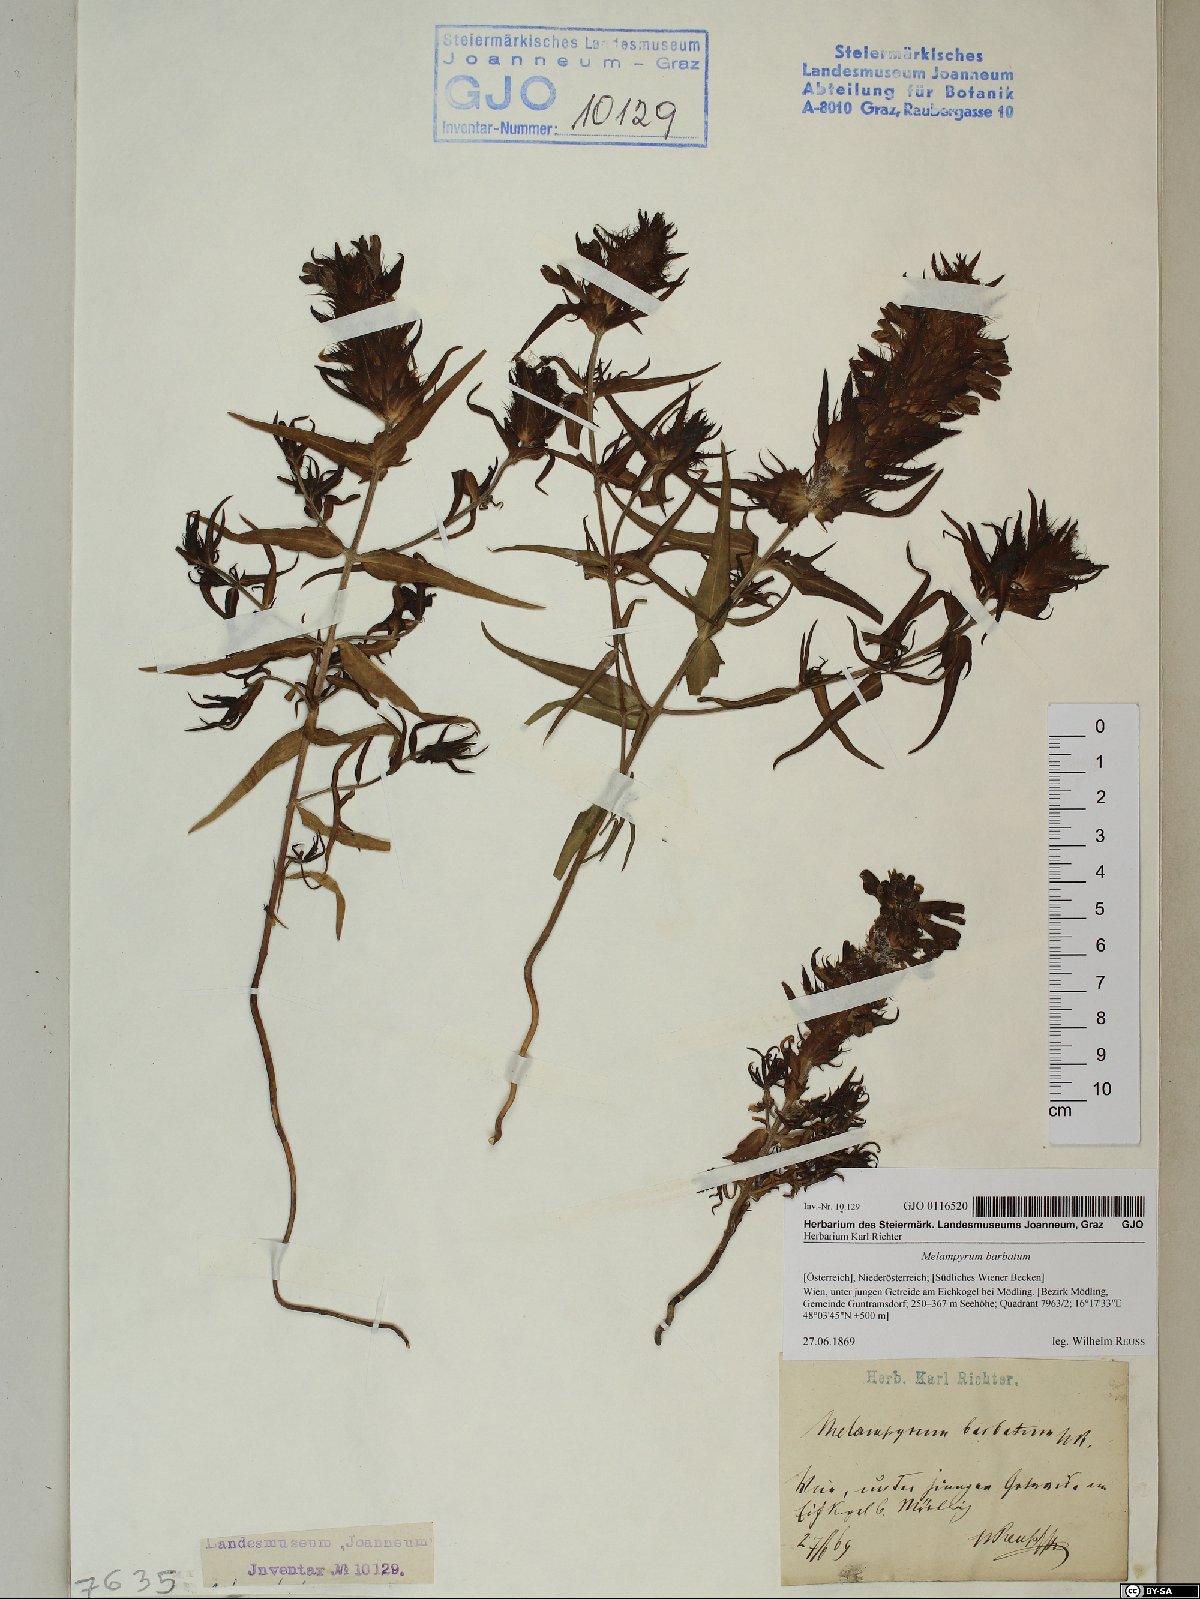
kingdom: Plantae
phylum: Tracheophyta
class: Magnoliopsida
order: Lamiales
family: Orobanchaceae
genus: Melampyrum
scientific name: Melampyrum barbatum
